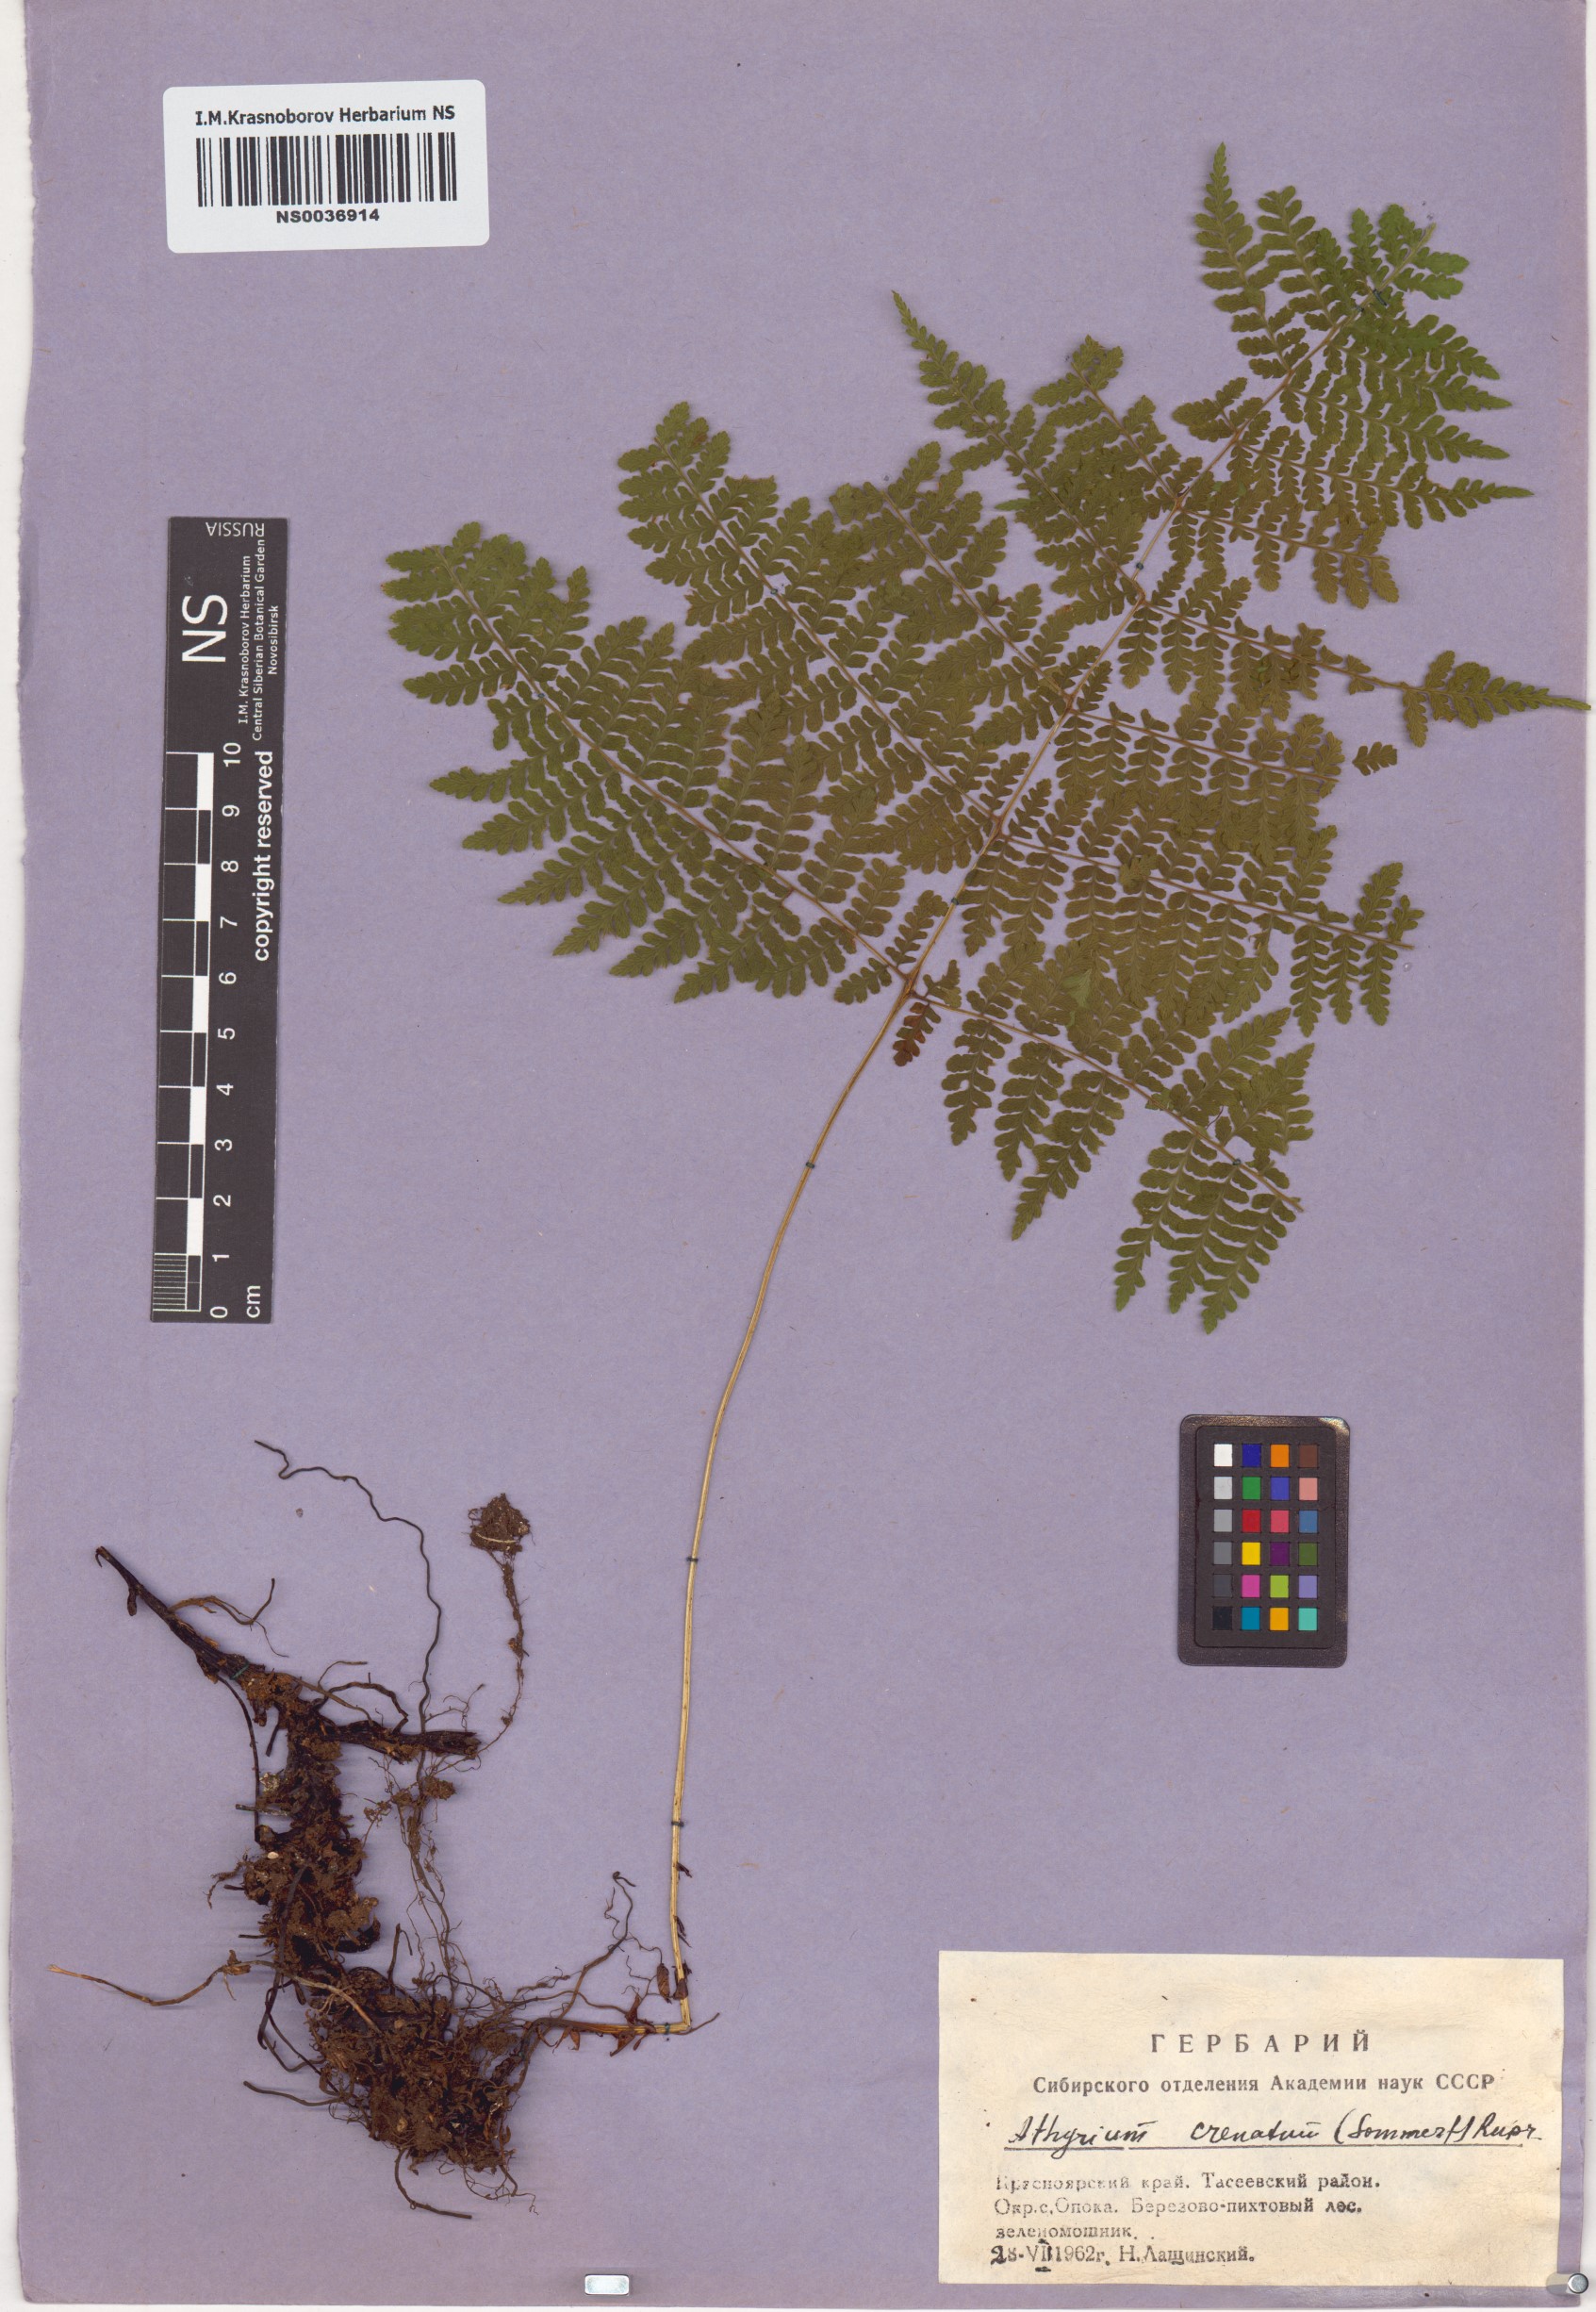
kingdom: Plantae
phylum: Tracheophyta
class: Polypodiopsida
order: Polypodiales
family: Athyriaceae
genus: Diplazium
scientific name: Diplazium sibiricum
